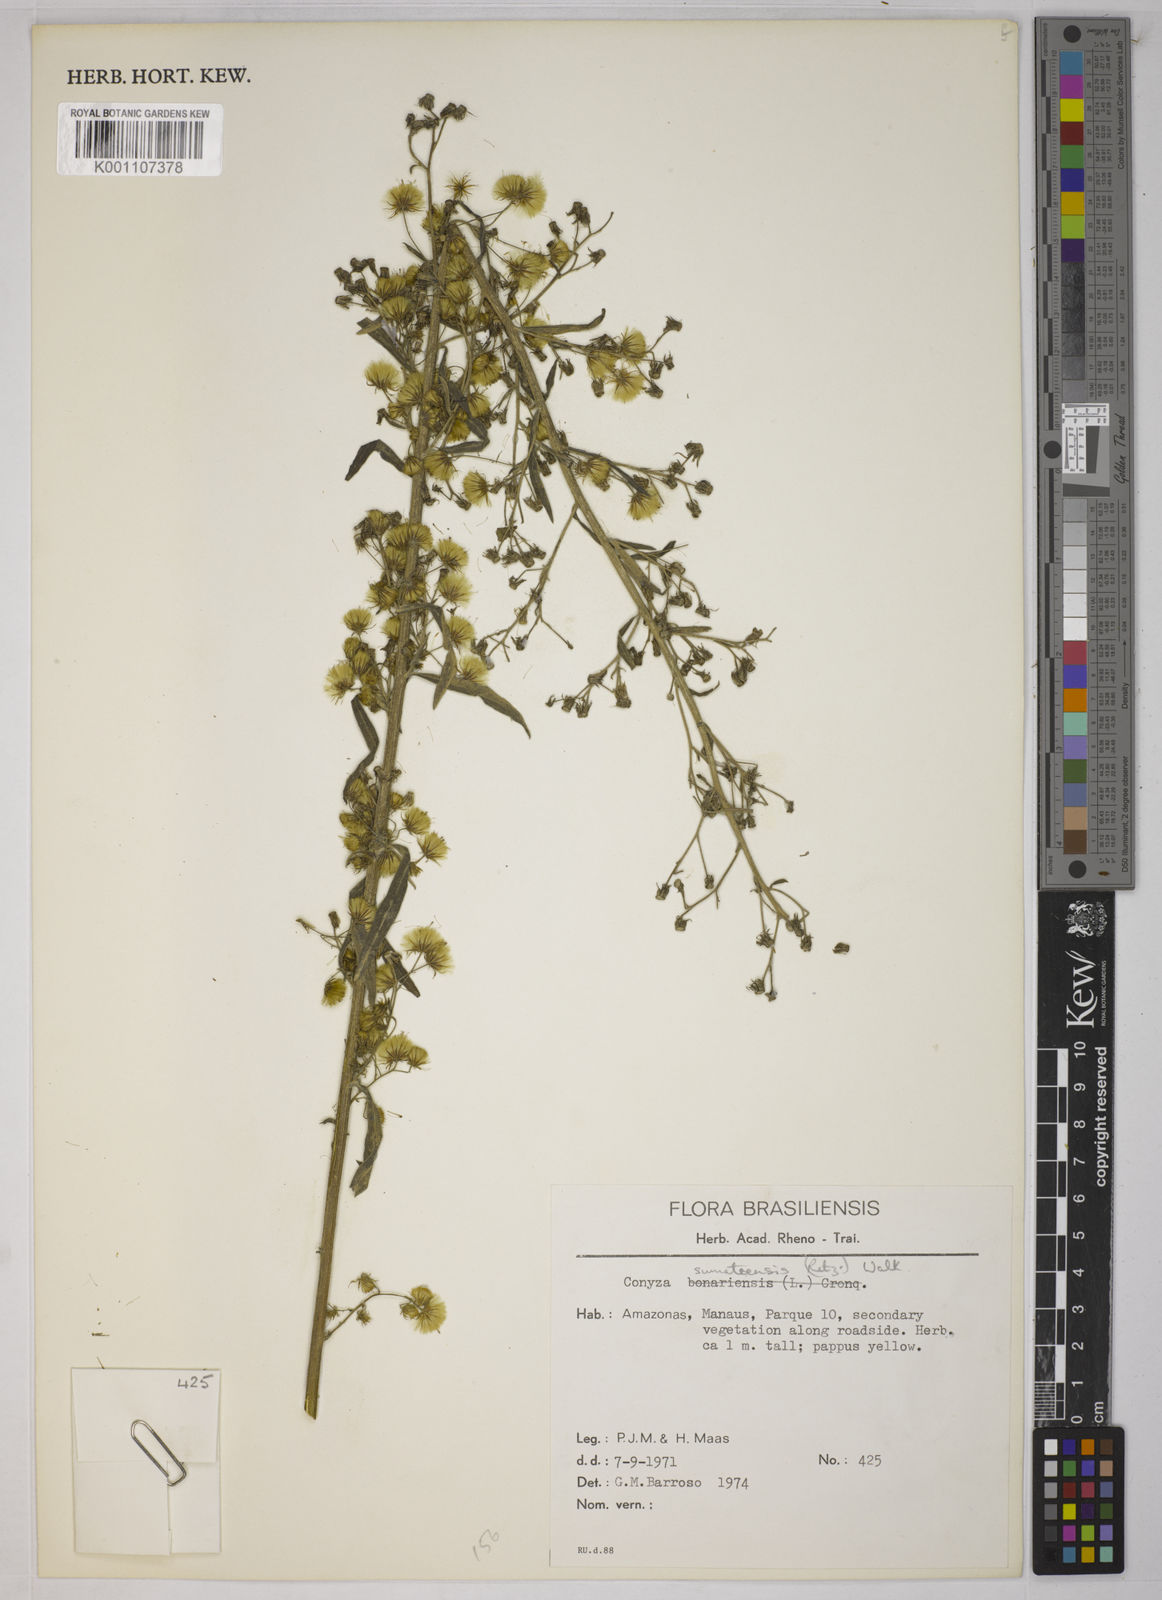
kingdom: Plantae
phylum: Tracheophyta
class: Magnoliopsida
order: Asterales
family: Asteraceae
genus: Erigeron
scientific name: Erigeron sumatrensis
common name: Daisy
